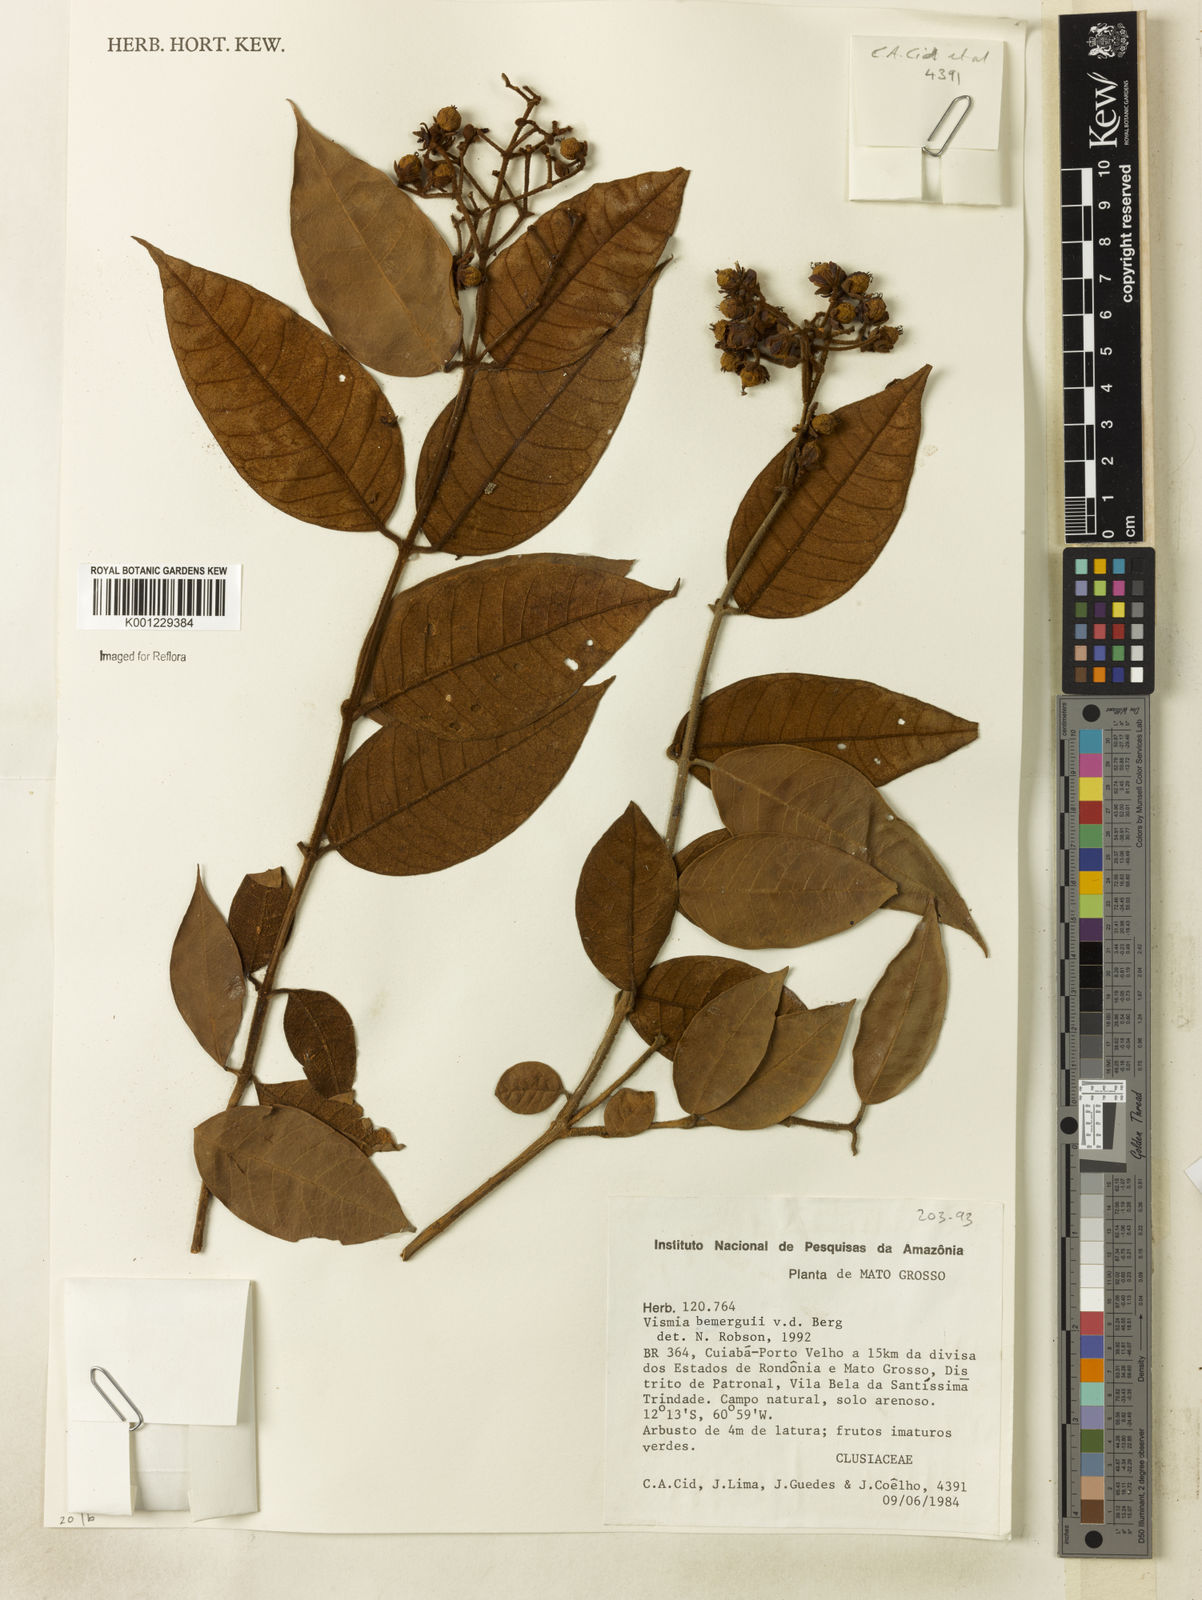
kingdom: Plantae
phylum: Tracheophyta
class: Magnoliopsida
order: Malpighiales
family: Hypericaceae
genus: Vismia
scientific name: Vismia bemerguii
